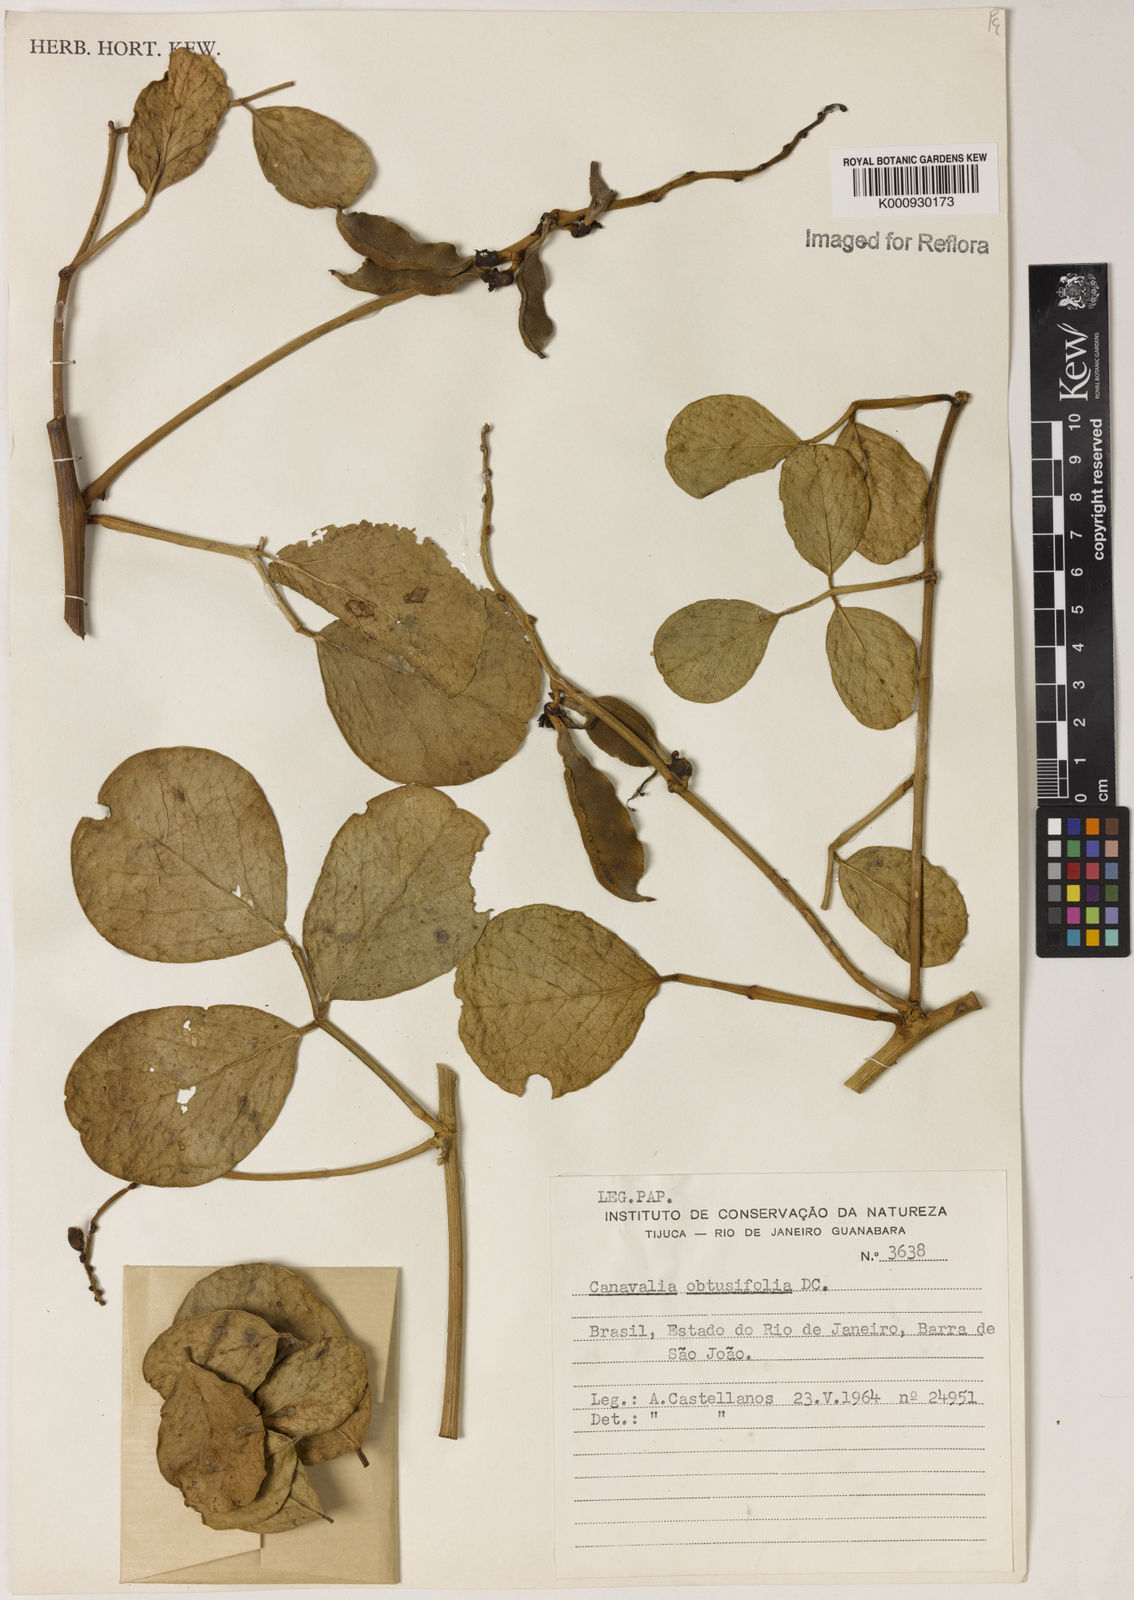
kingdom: Plantae
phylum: Tracheophyta
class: Magnoliopsida
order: Fabales
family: Fabaceae
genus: Canavalia
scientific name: Canavalia rosea
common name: Beach-bean
